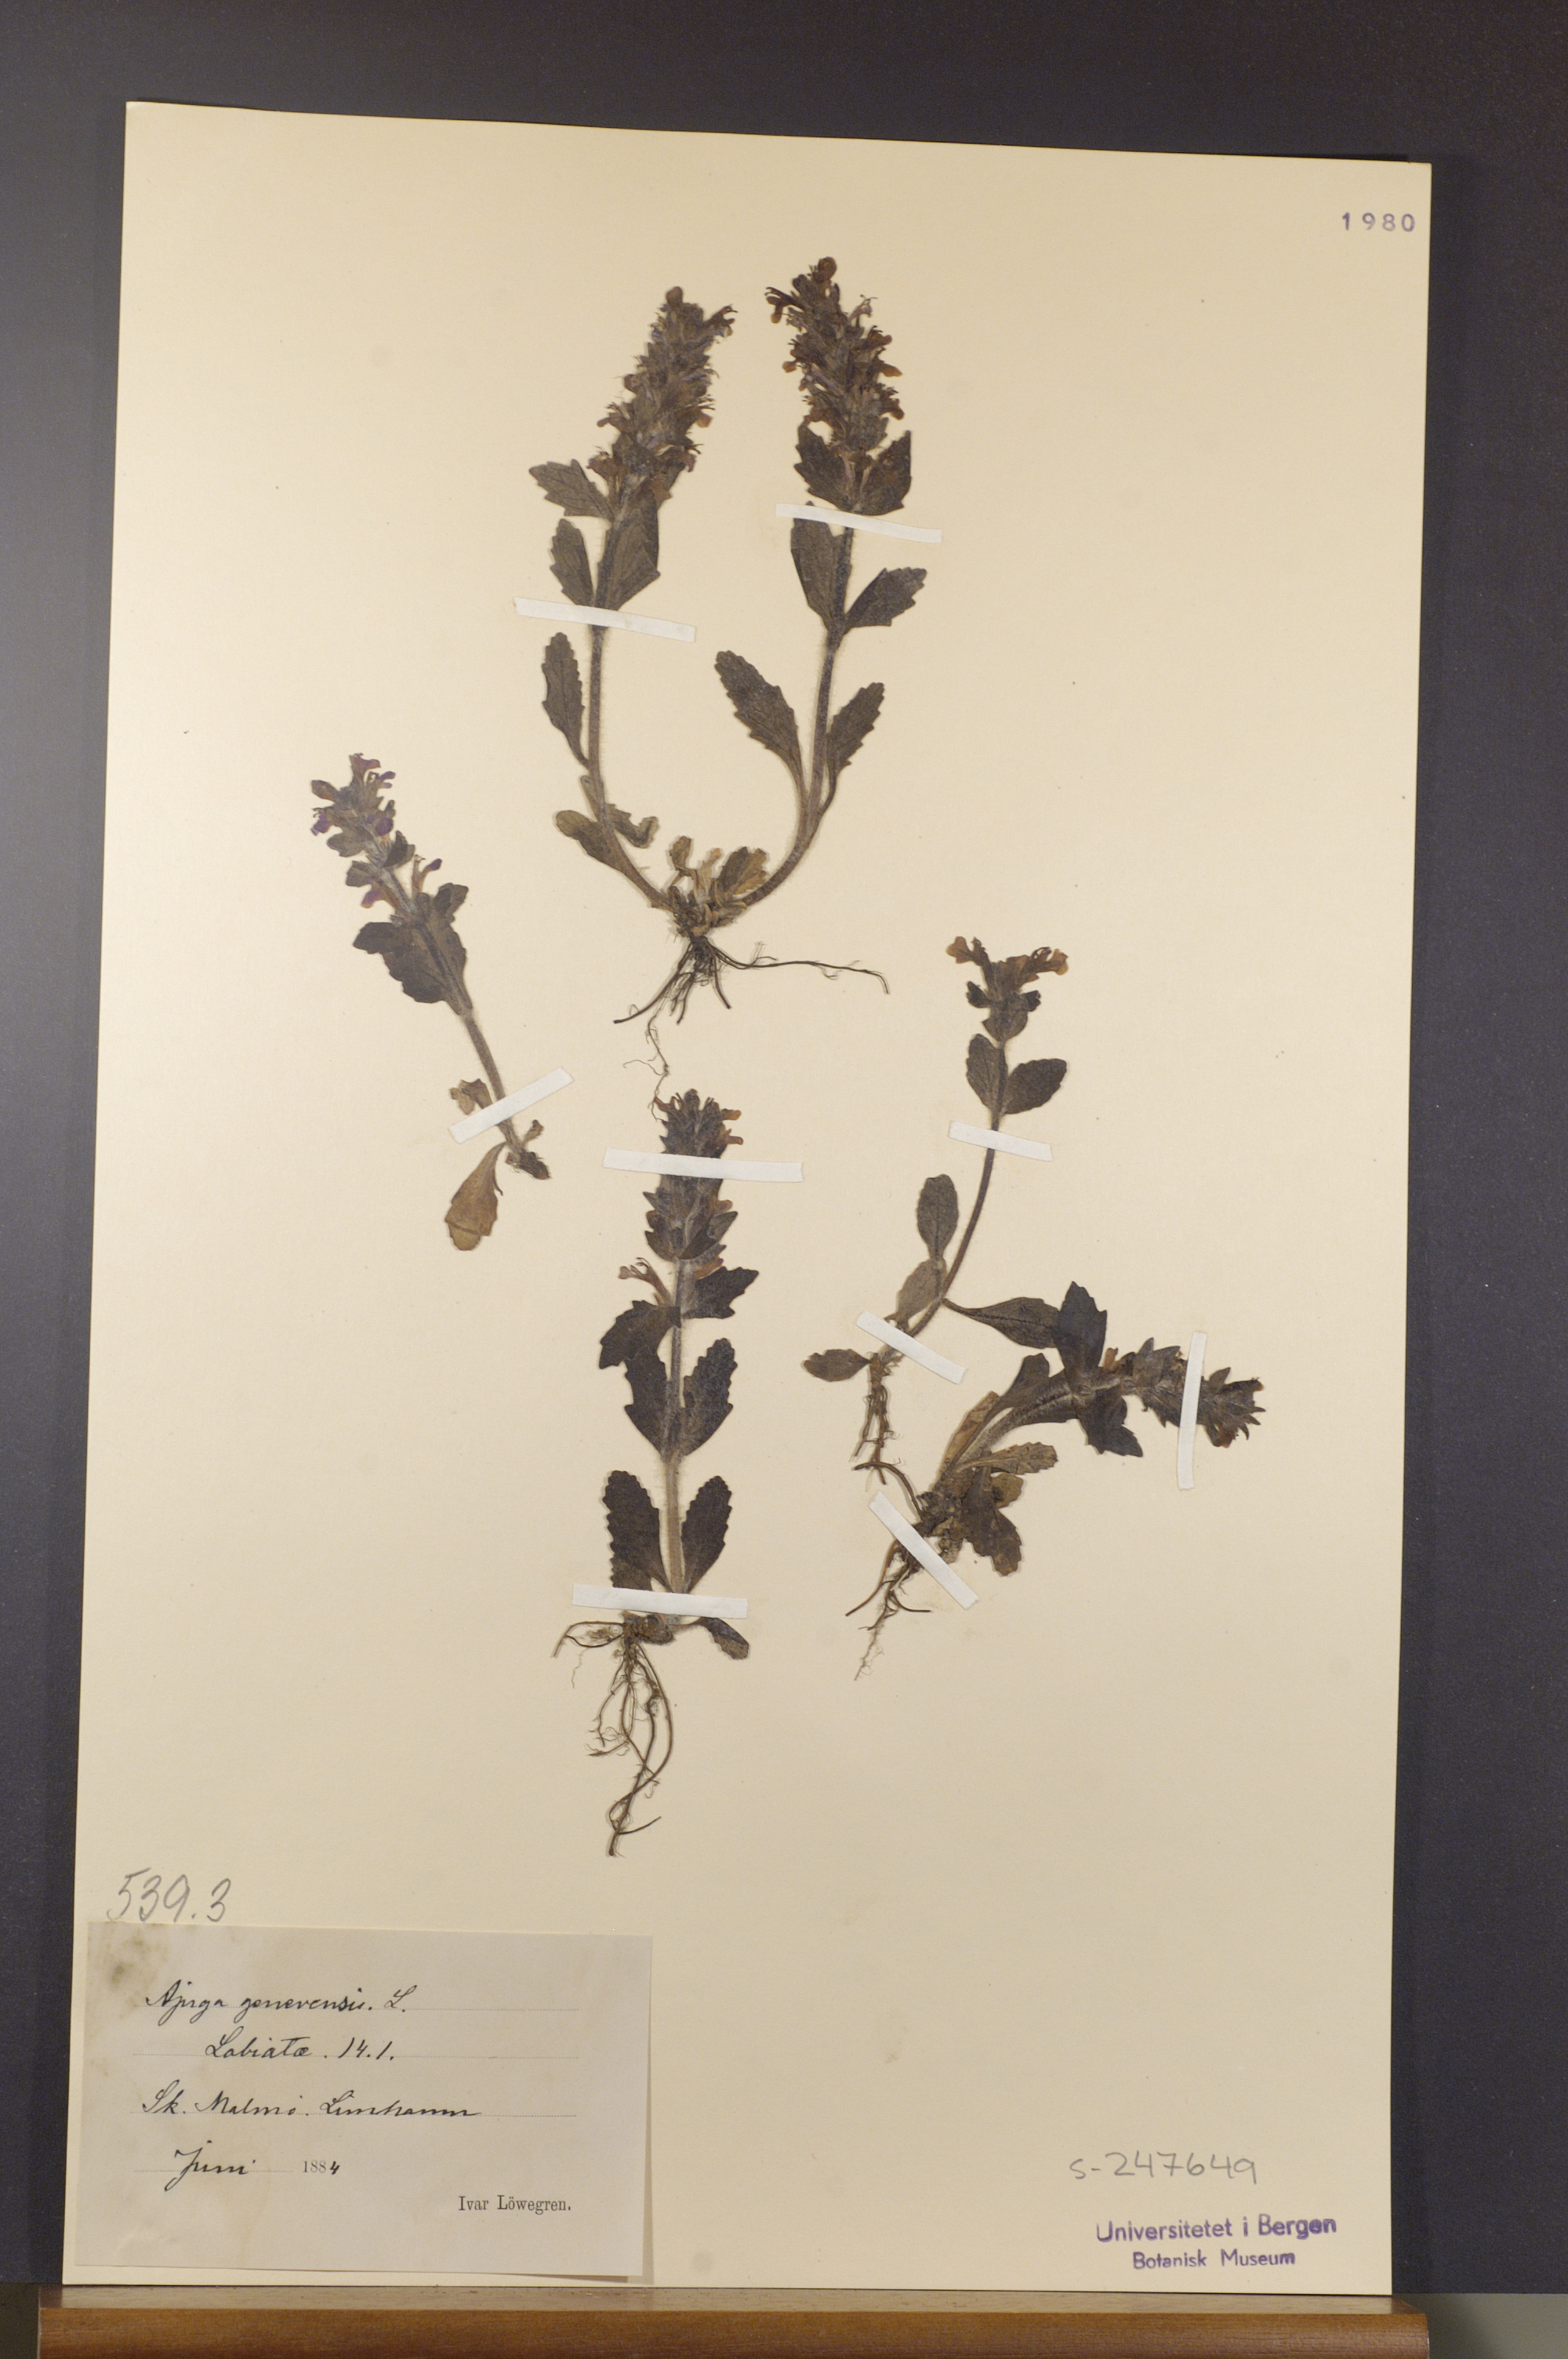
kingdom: Plantae
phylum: Tracheophyta
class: Magnoliopsida
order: Lamiales
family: Lamiaceae
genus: Ajuga
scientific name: Ajuga genevensis
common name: Blue bugle
